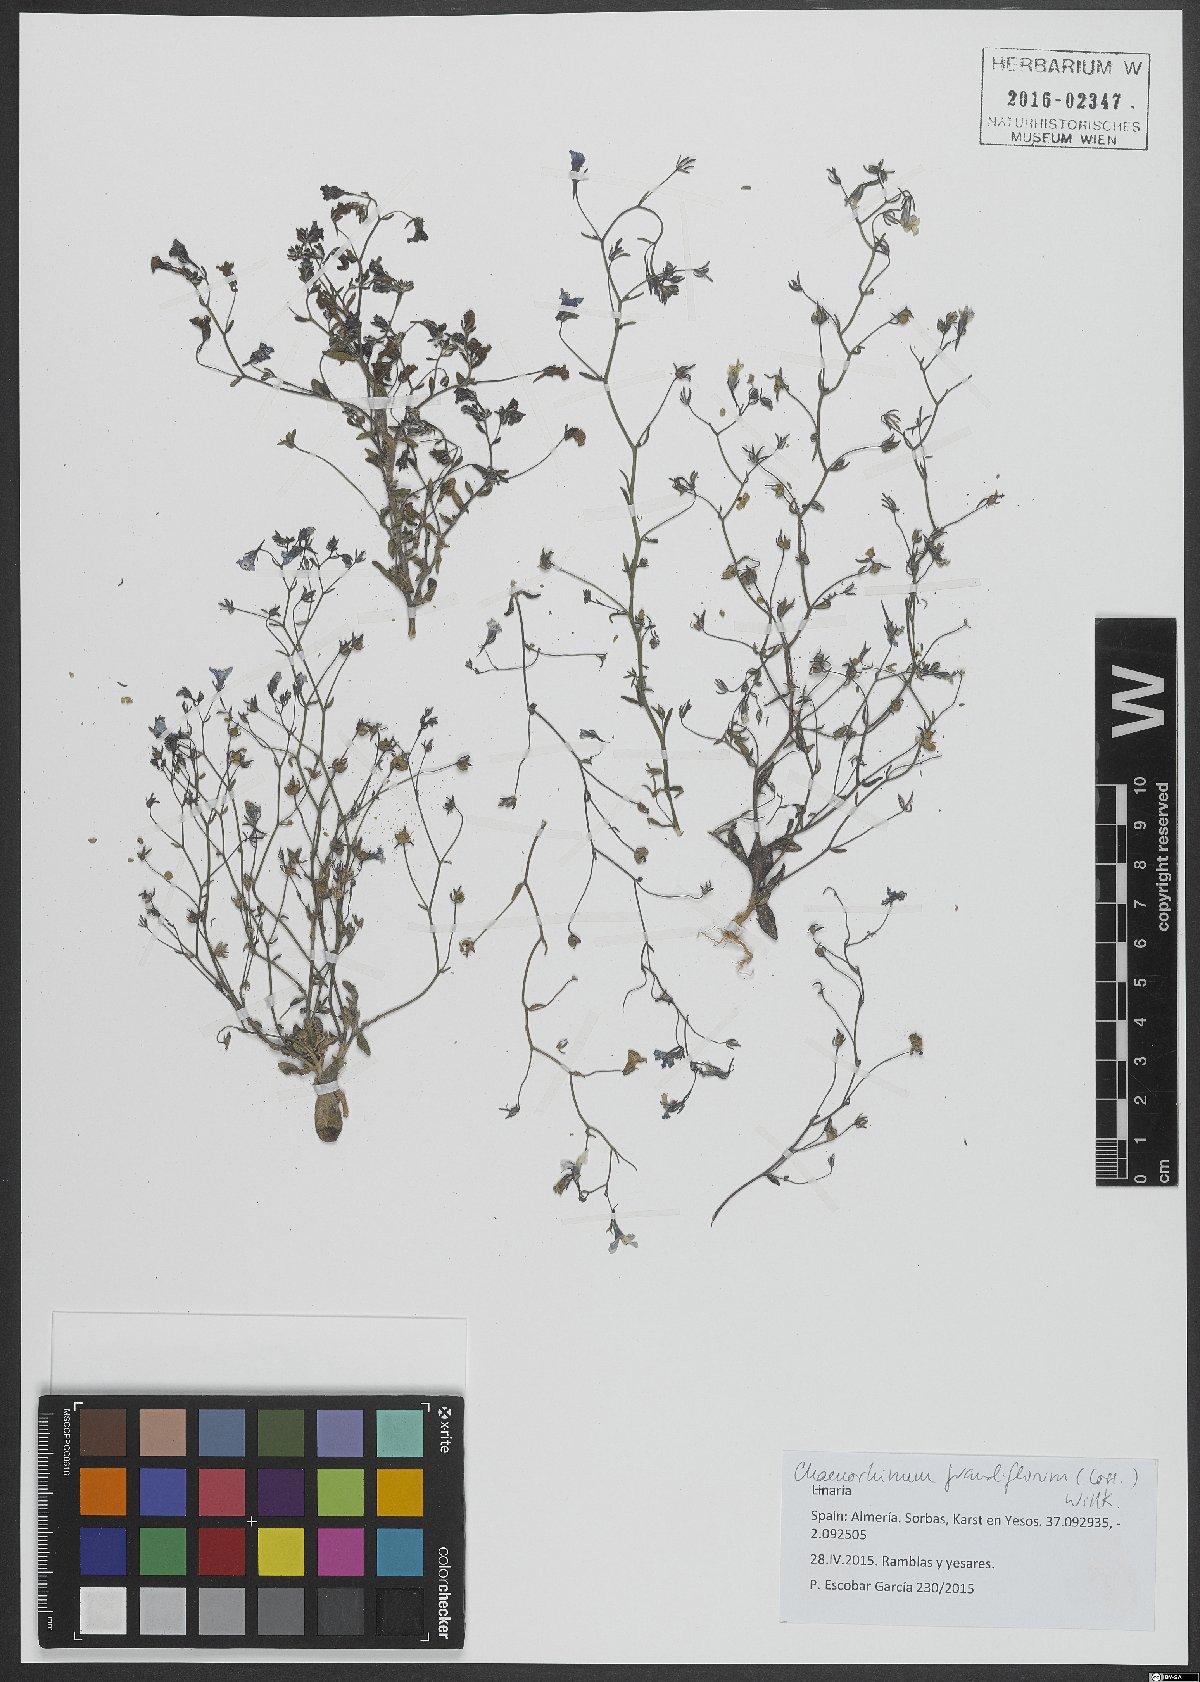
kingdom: Plantae
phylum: Tracheophyta
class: Magnoliopsida
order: Lamiales
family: Plantaginaceae
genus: Chaenorhinum
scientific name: Chaenorhinum grandiflorum
